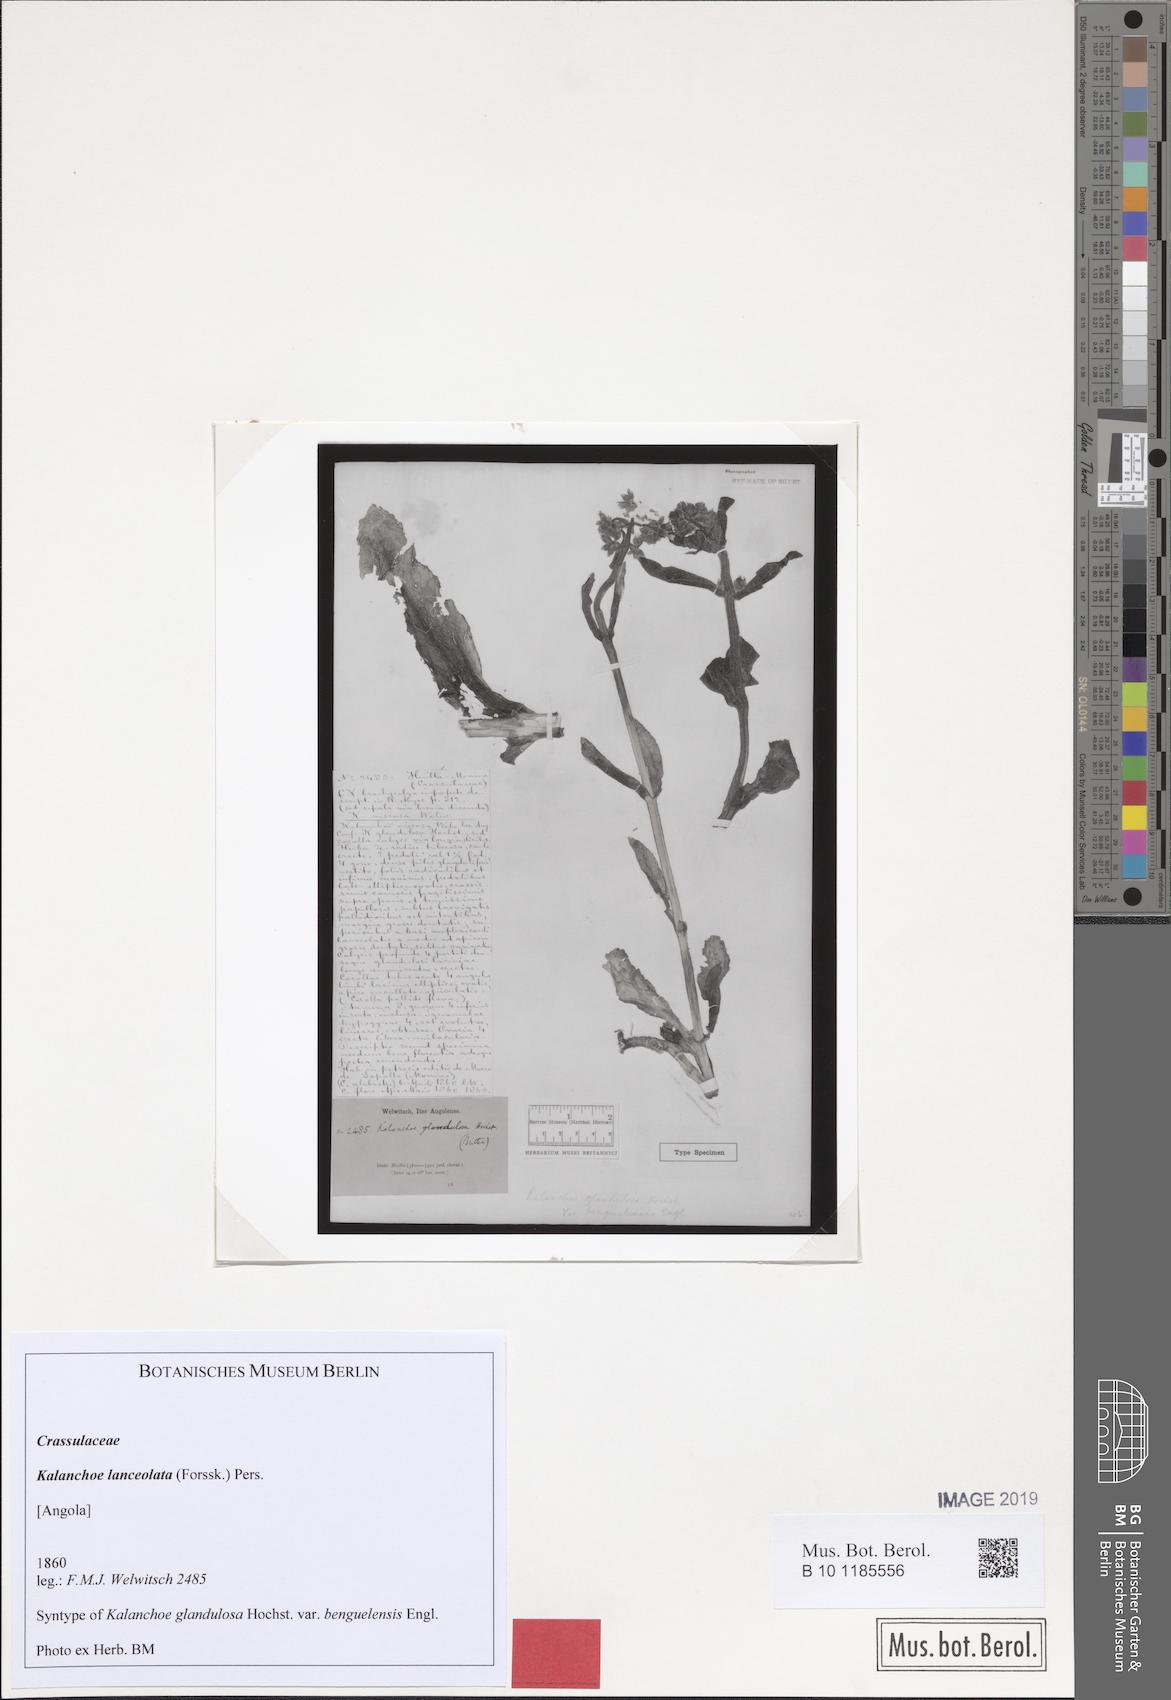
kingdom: Plantae
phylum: Tracheophyta
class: Magnoliopsida
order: Saxifragales
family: Crassulaceae
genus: Kalanchoe
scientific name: Kalanchoe lanceolata
